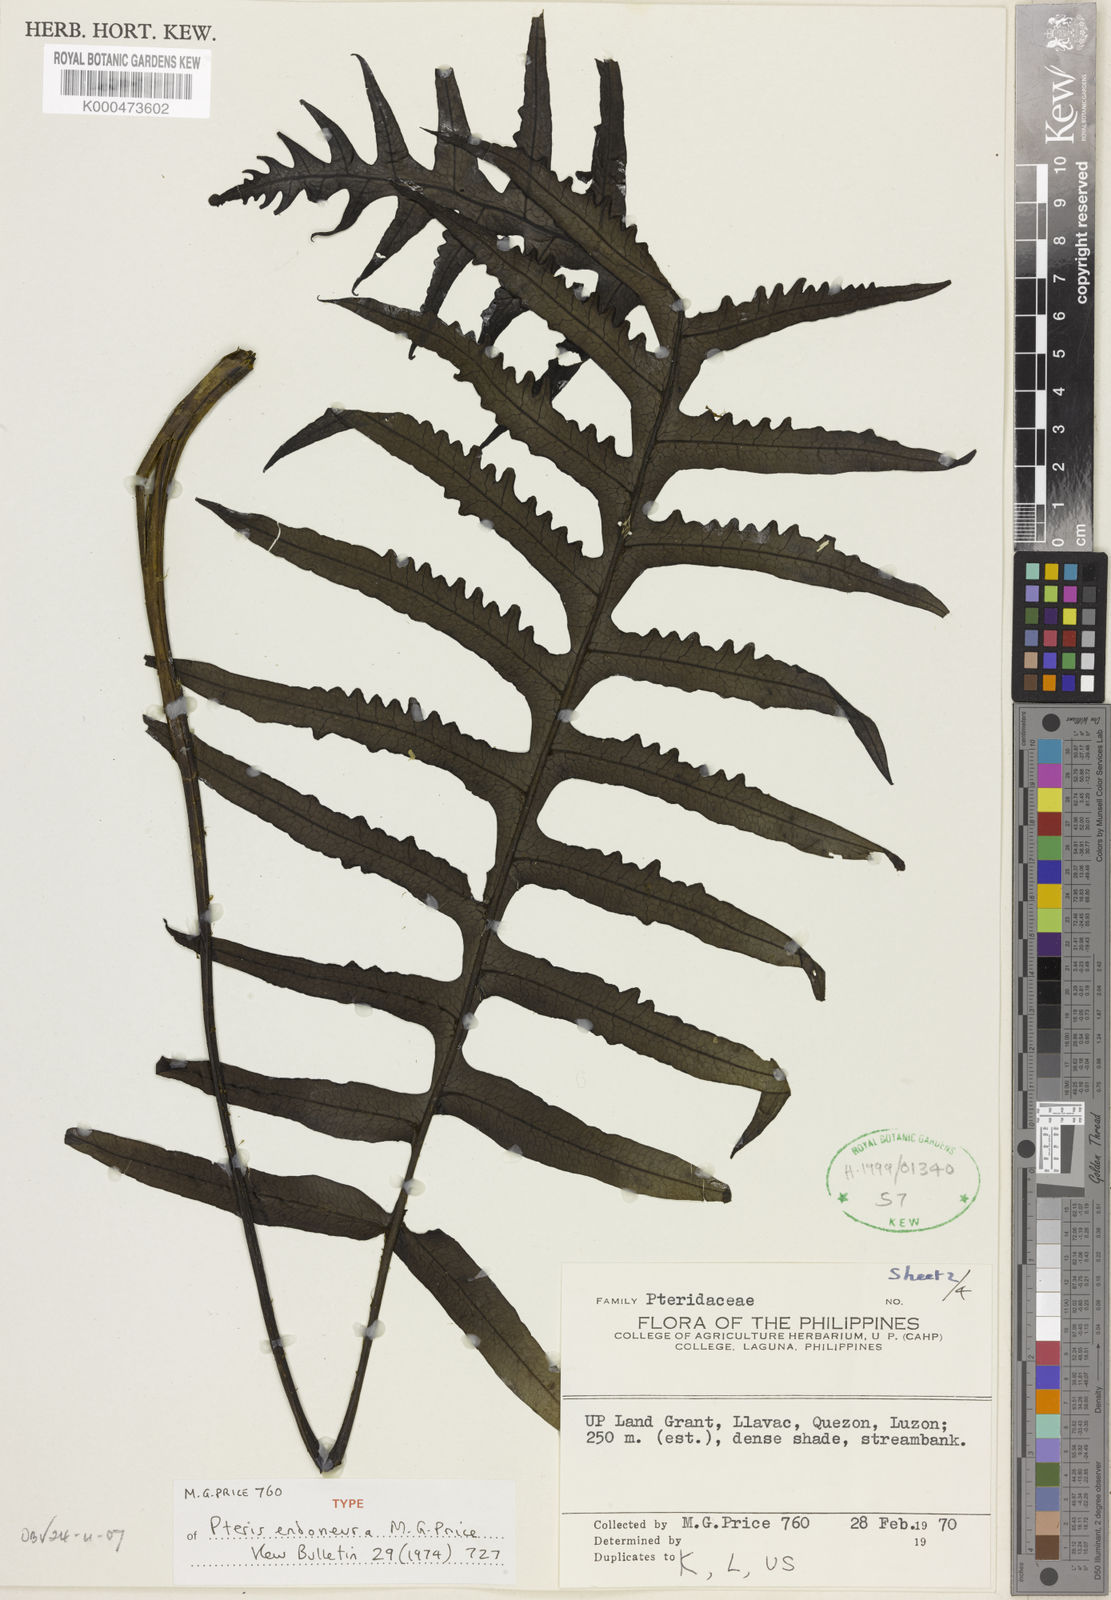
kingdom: Plantae
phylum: Tracheophyta
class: Polypodiopsida
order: Polypodiales
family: Pteridaceae
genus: Pteris
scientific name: Pteris endoneura
